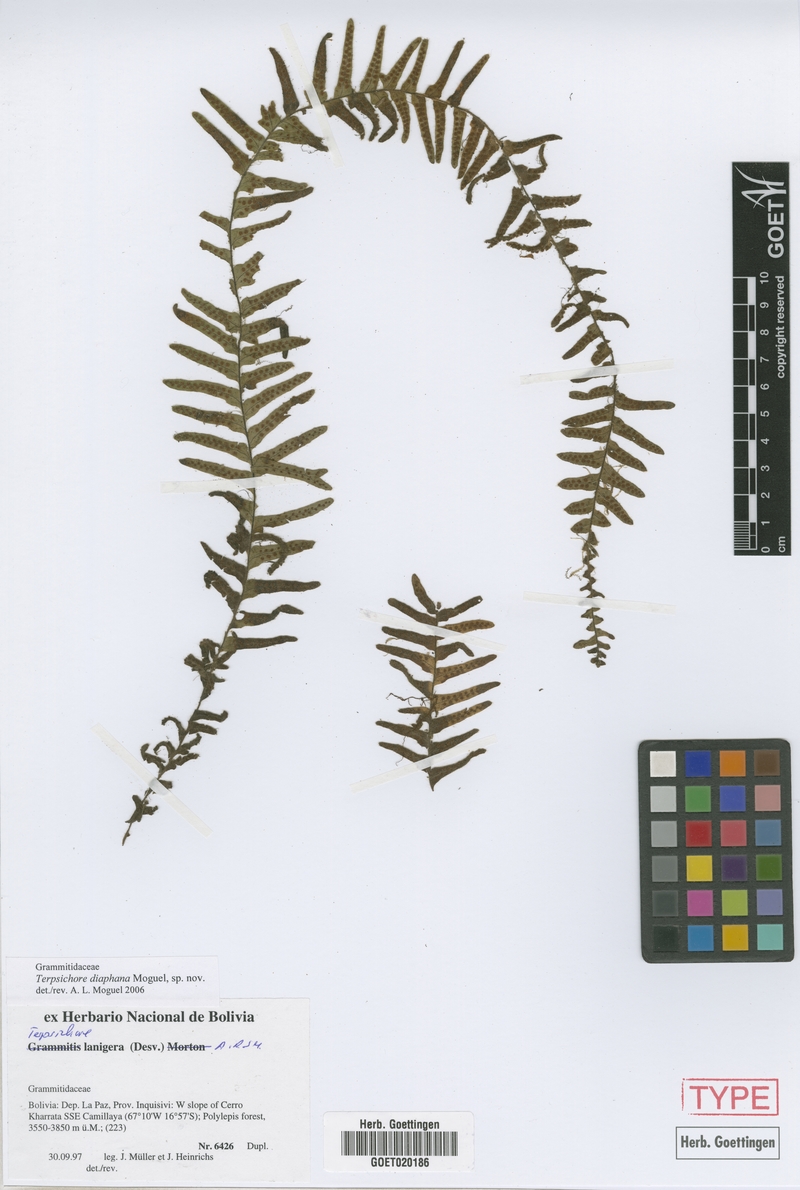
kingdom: Plantae
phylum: Tracheophyta
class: Polypodiopsida
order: Polypodiales
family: Polypodiaceae
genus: Alansmia
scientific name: Alansmia diaphana
